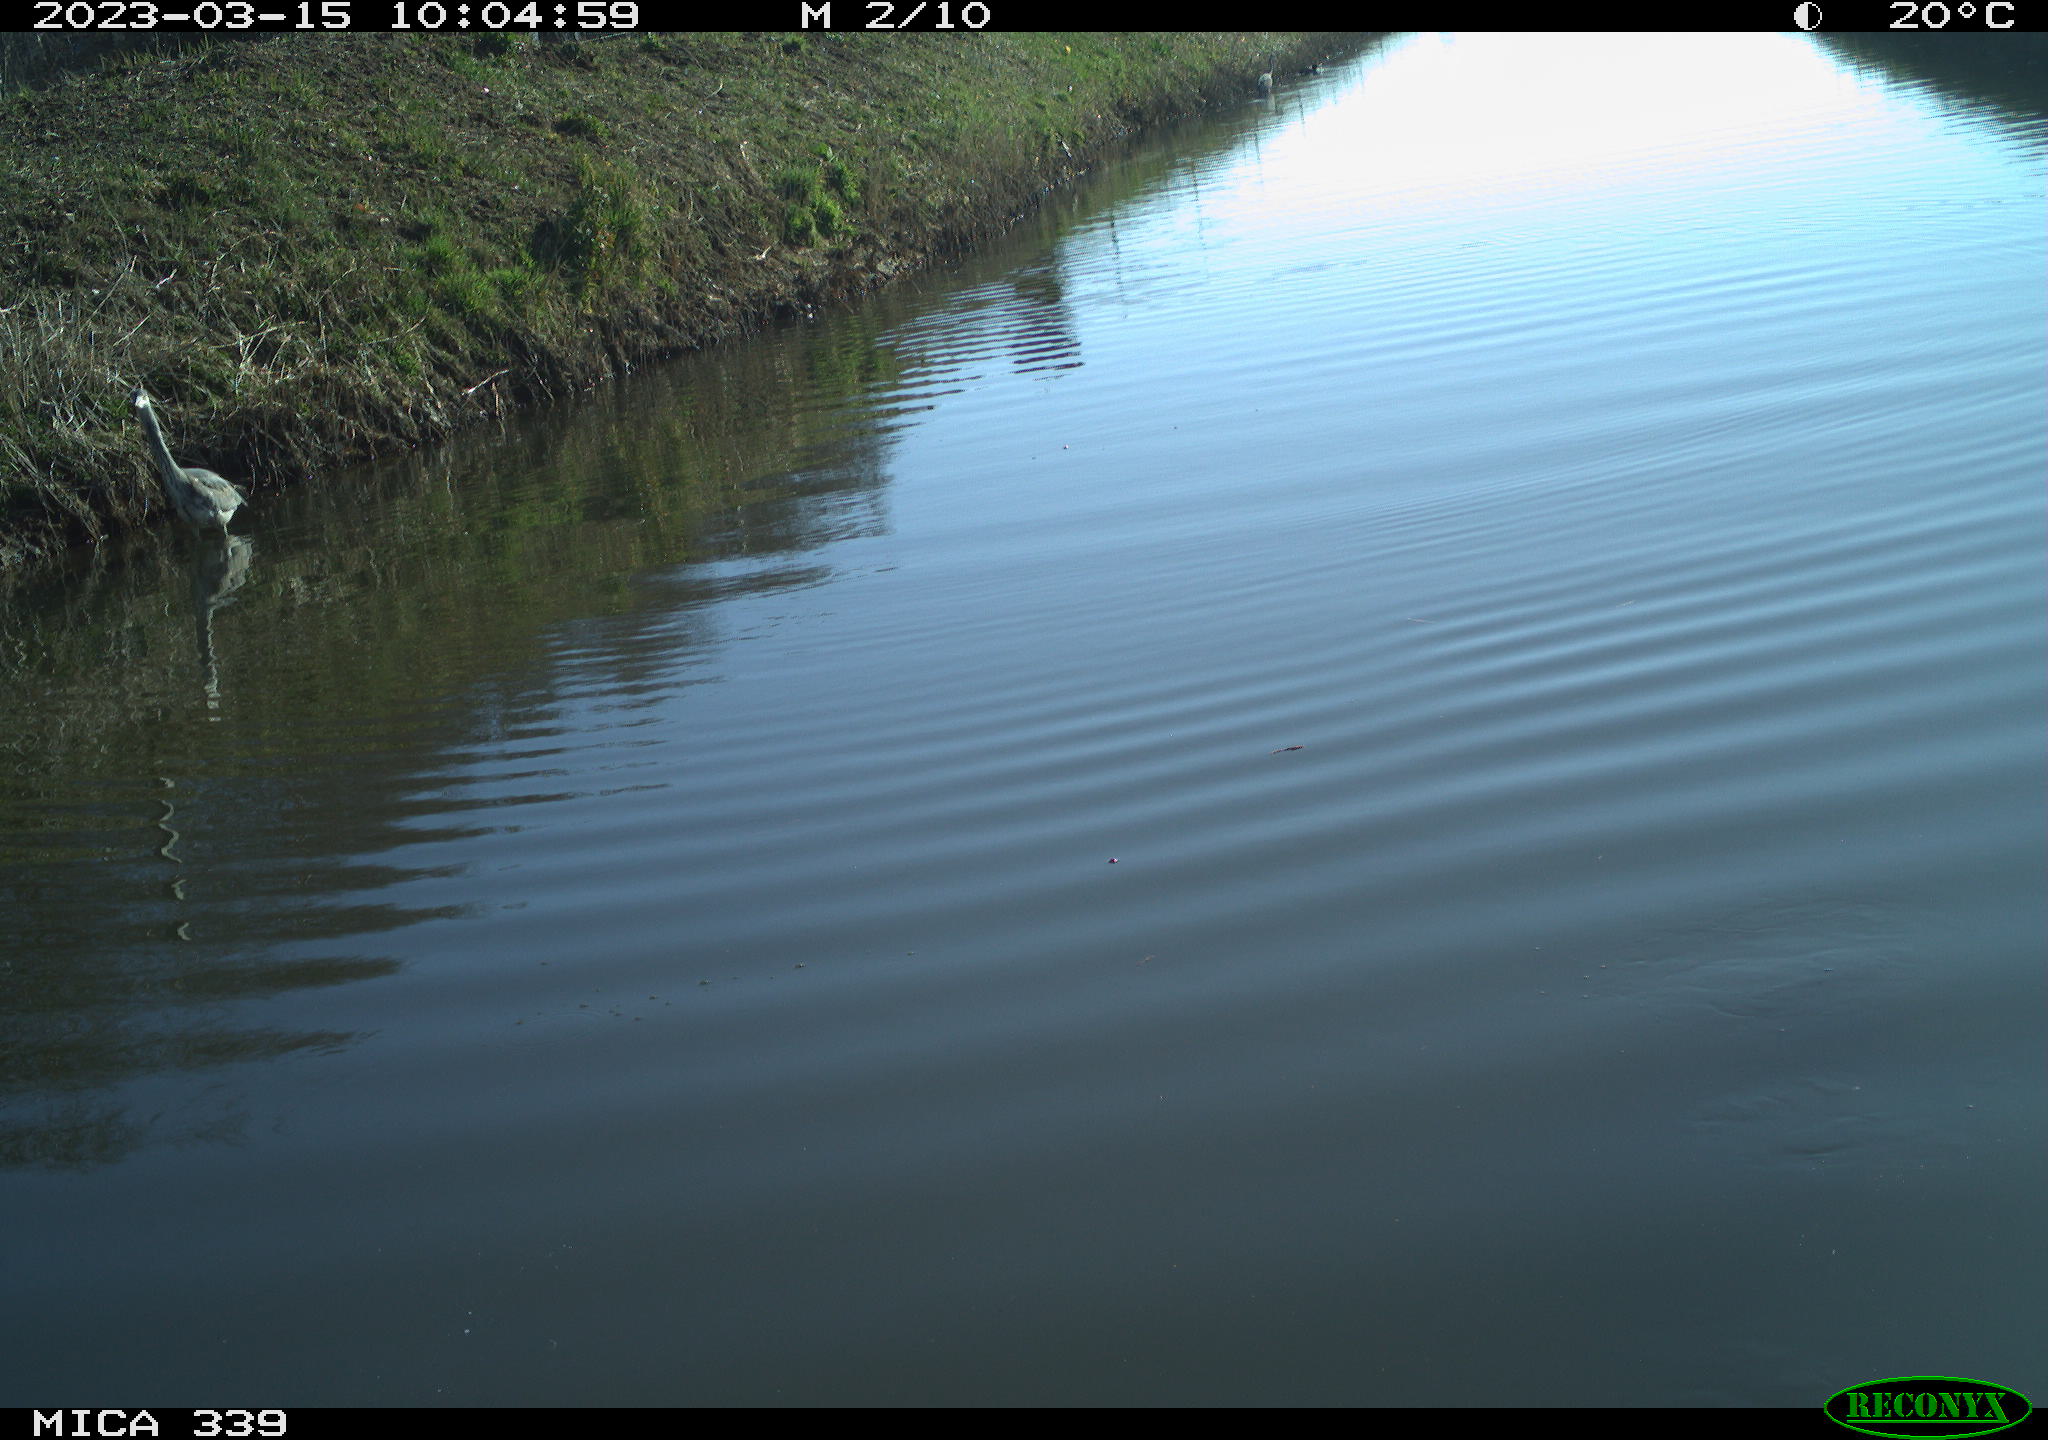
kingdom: Animalia
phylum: Chordata
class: Aves
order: Suliformes
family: Phalacrocoracidae
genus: Phalacrocorax
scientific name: Phalacrocorax carbo
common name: Great cormorant
